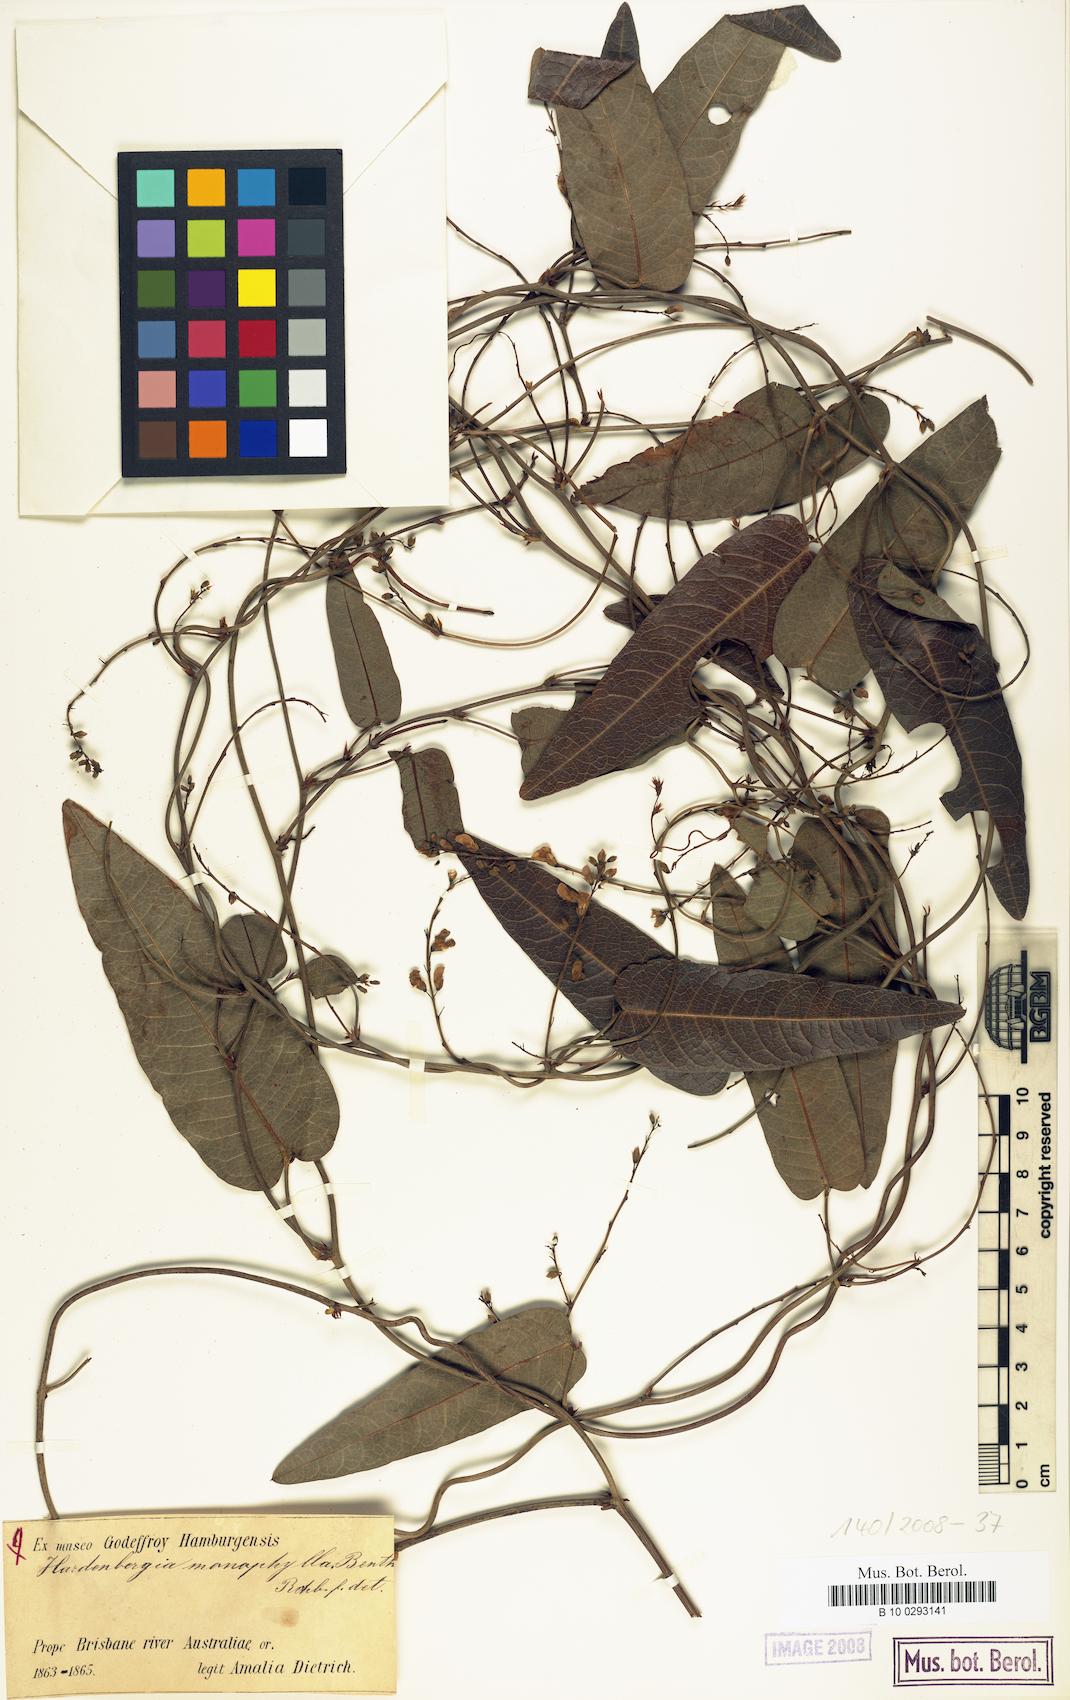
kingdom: Plantae
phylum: Tracheophyta
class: Magnoliopsida
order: Fabales
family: Fabaceae
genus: Hardenbergia
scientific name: Hardenbergia violacea
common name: Coral-pea
